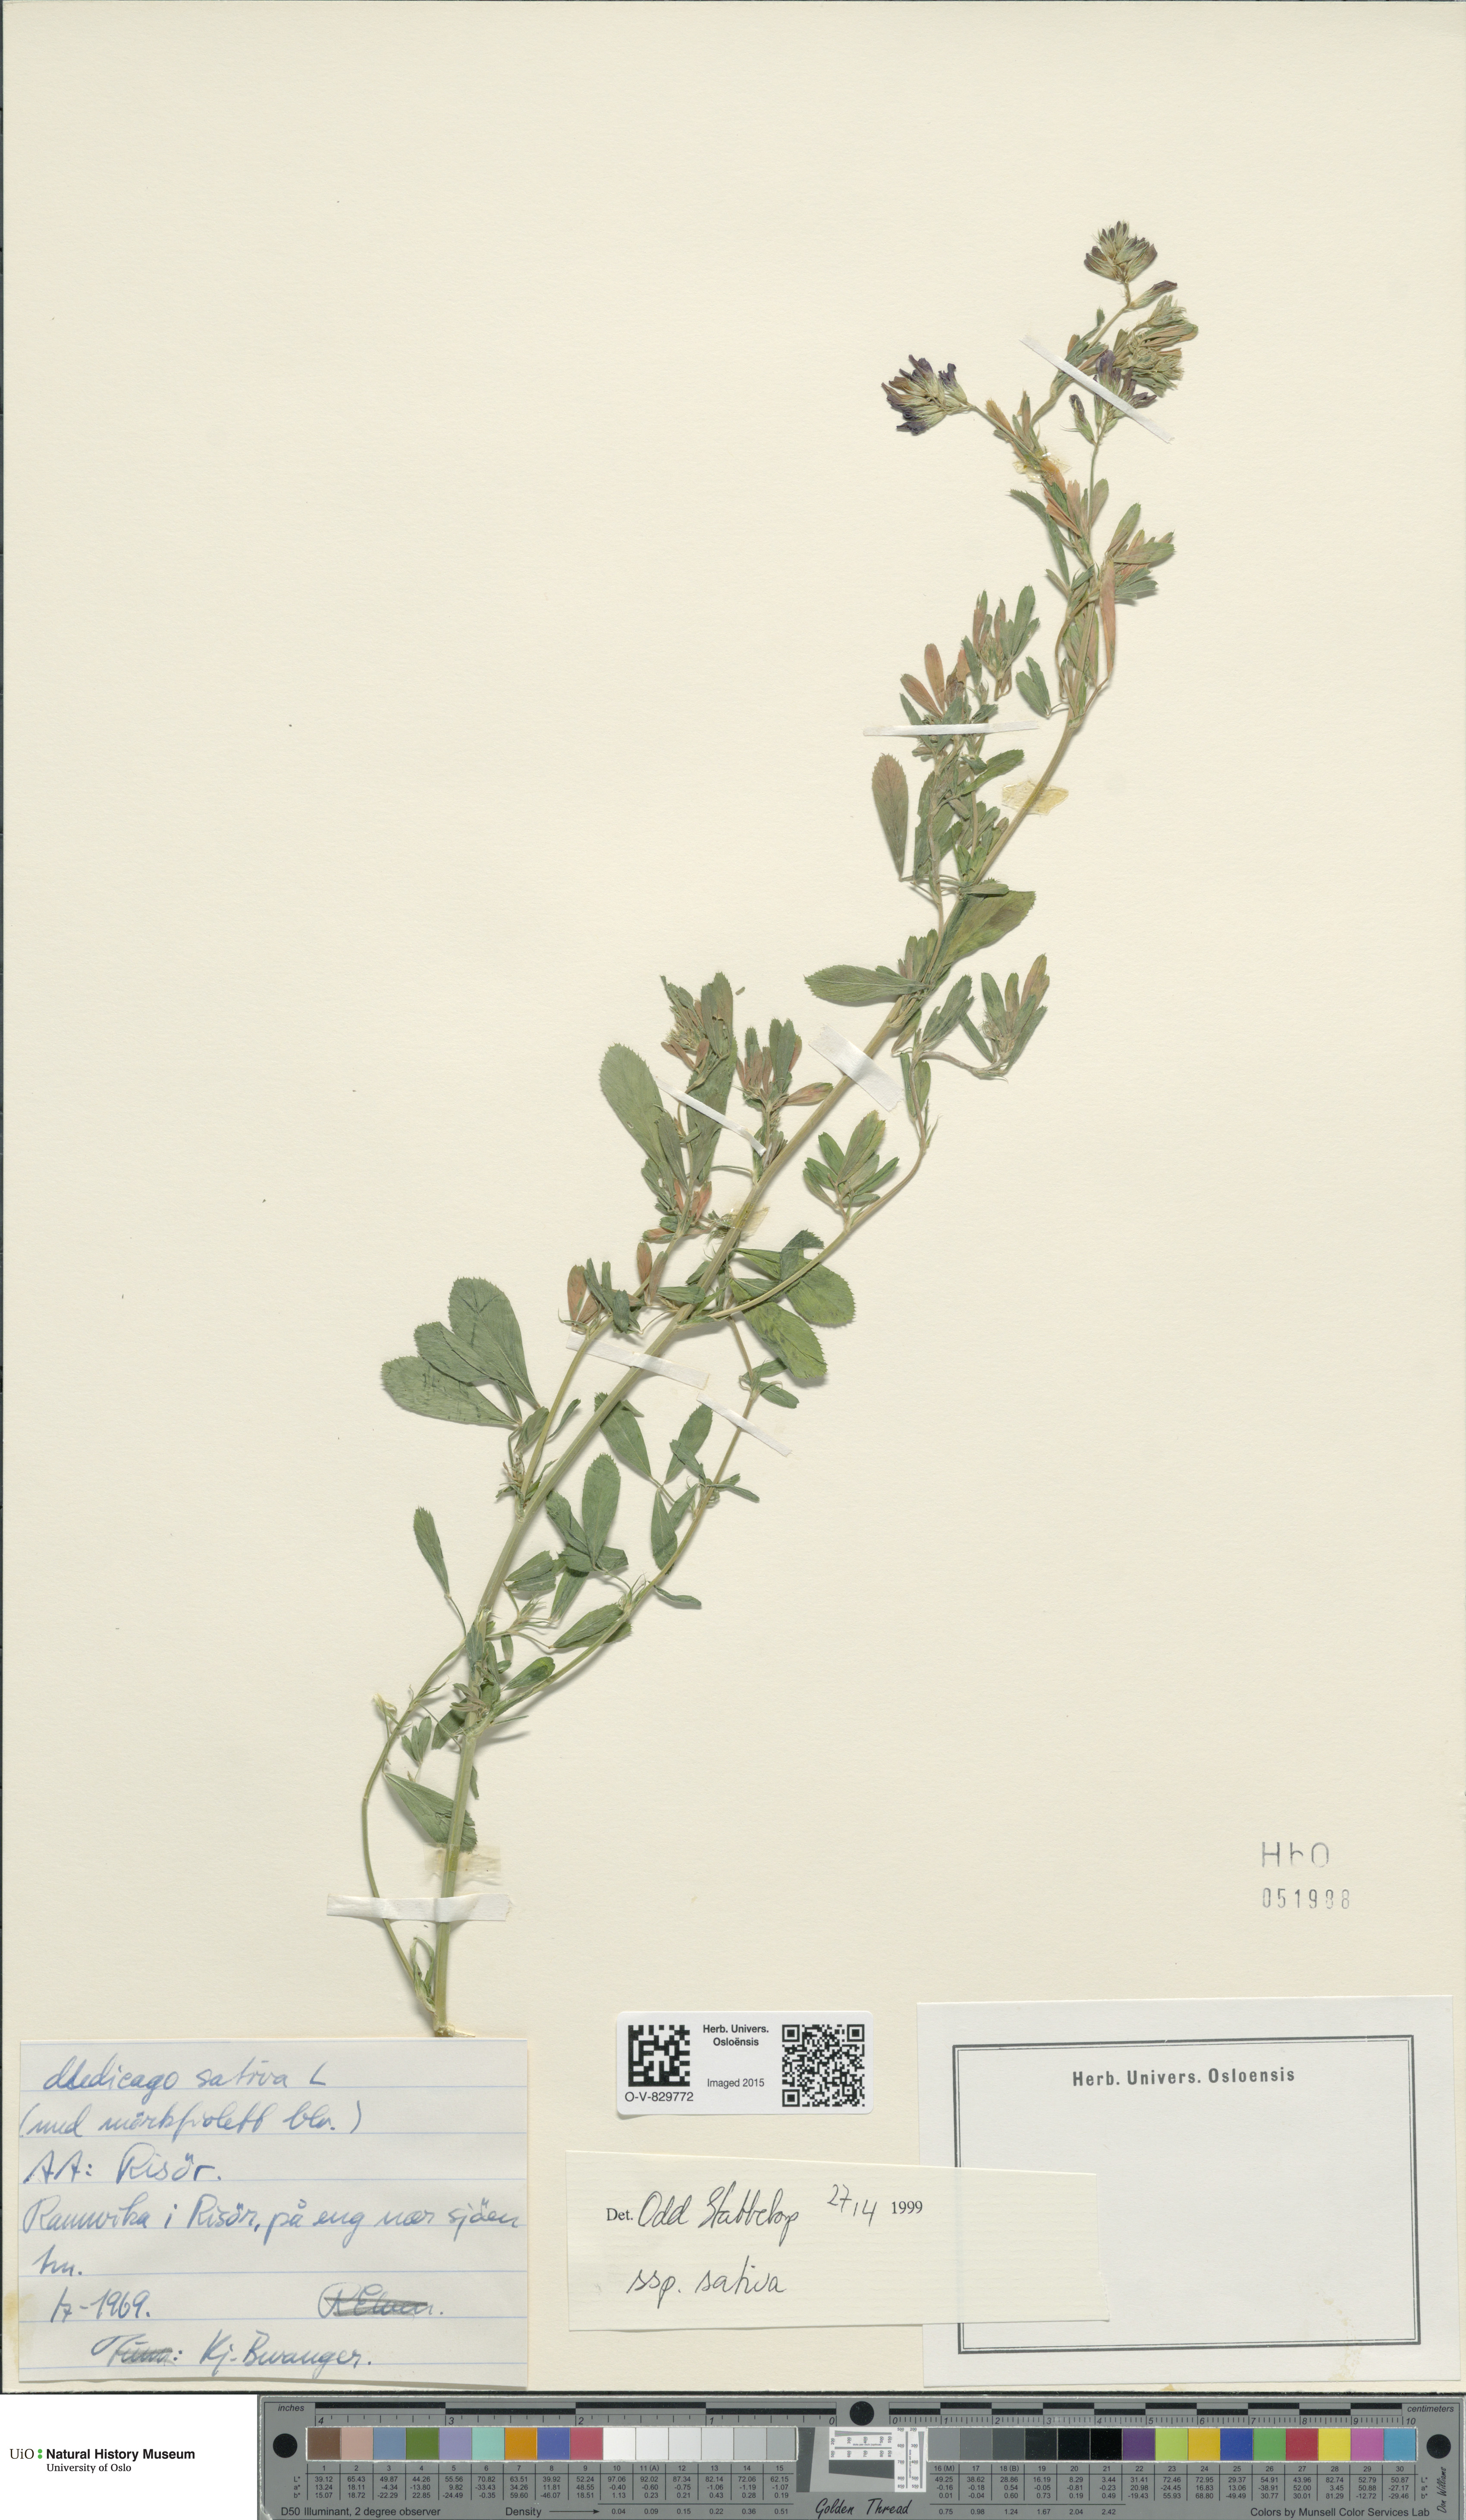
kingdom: Plantae
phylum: Tracheophyta
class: Magnoliopsida
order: Fabales
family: Fabaceae
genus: Medicago
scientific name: Medicago sativa
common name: Alfalfa
